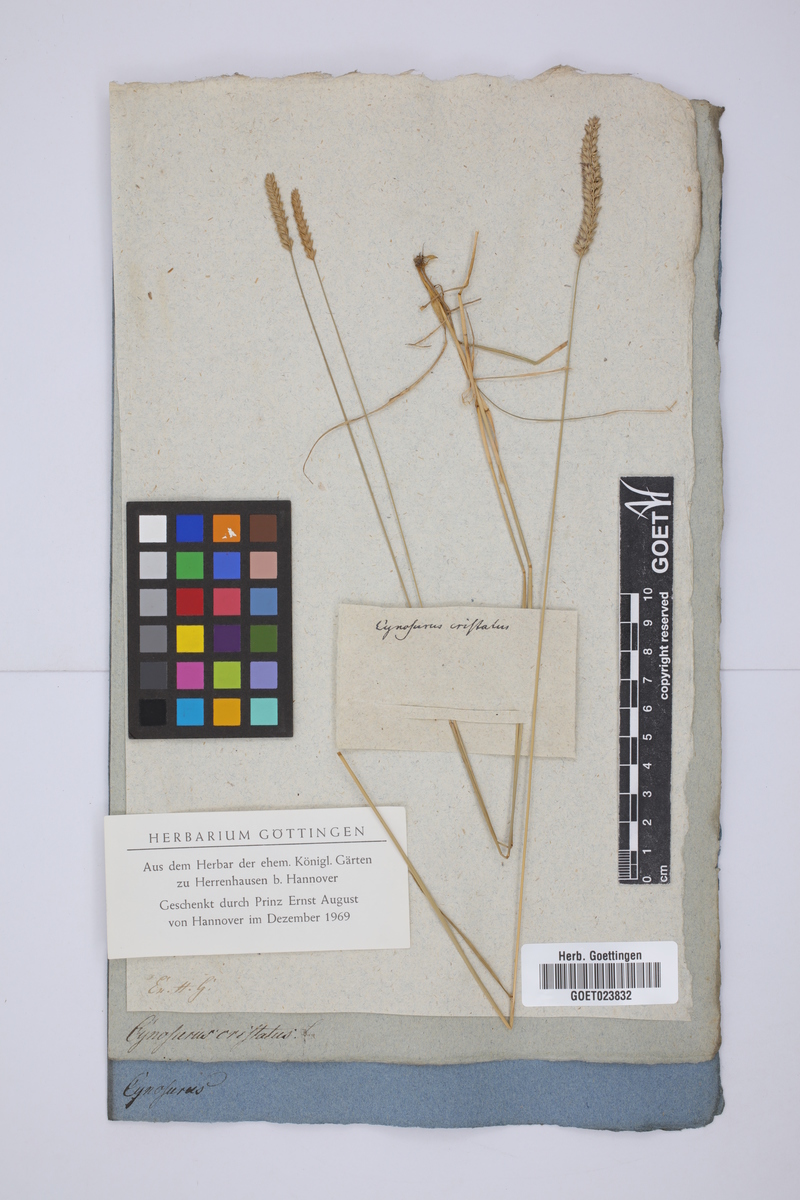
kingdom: Plantae
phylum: Tracheophyta
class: Liliopsida
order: Poales
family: Poaceae
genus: Cynosurus
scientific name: Cynosurus cristatus
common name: Crested dog's-tail
